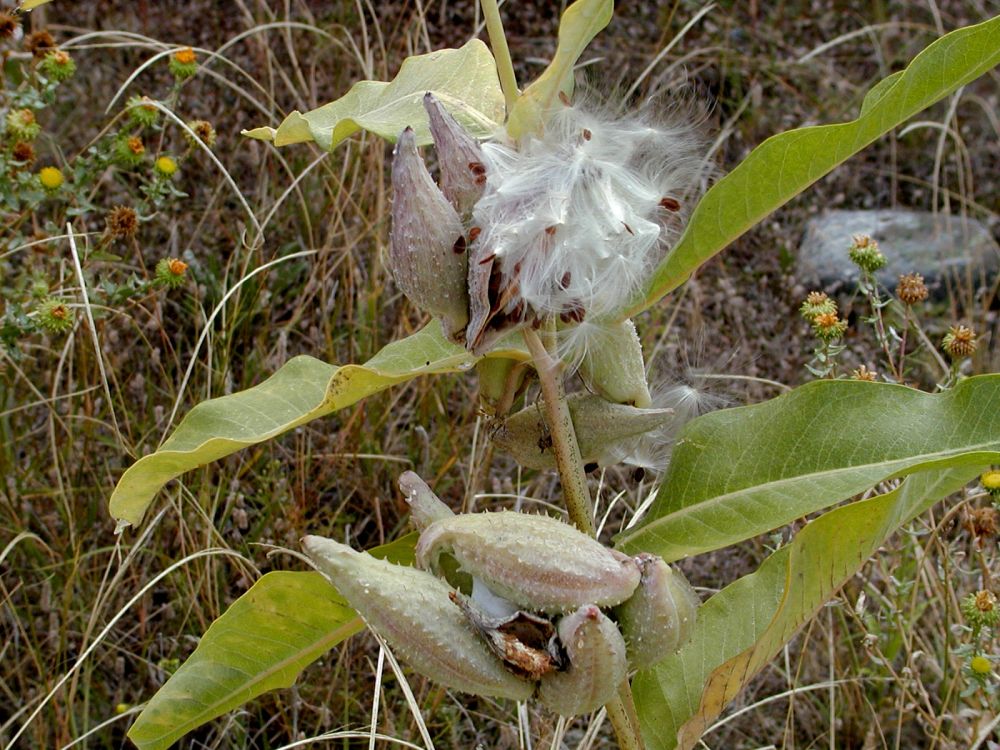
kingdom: Plantae
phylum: Tracheophyta
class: Magnoliopsida
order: Gentianales
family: Apocynaceae
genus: Asclepias
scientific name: Asclepias speciosa
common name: Showy milkweed
